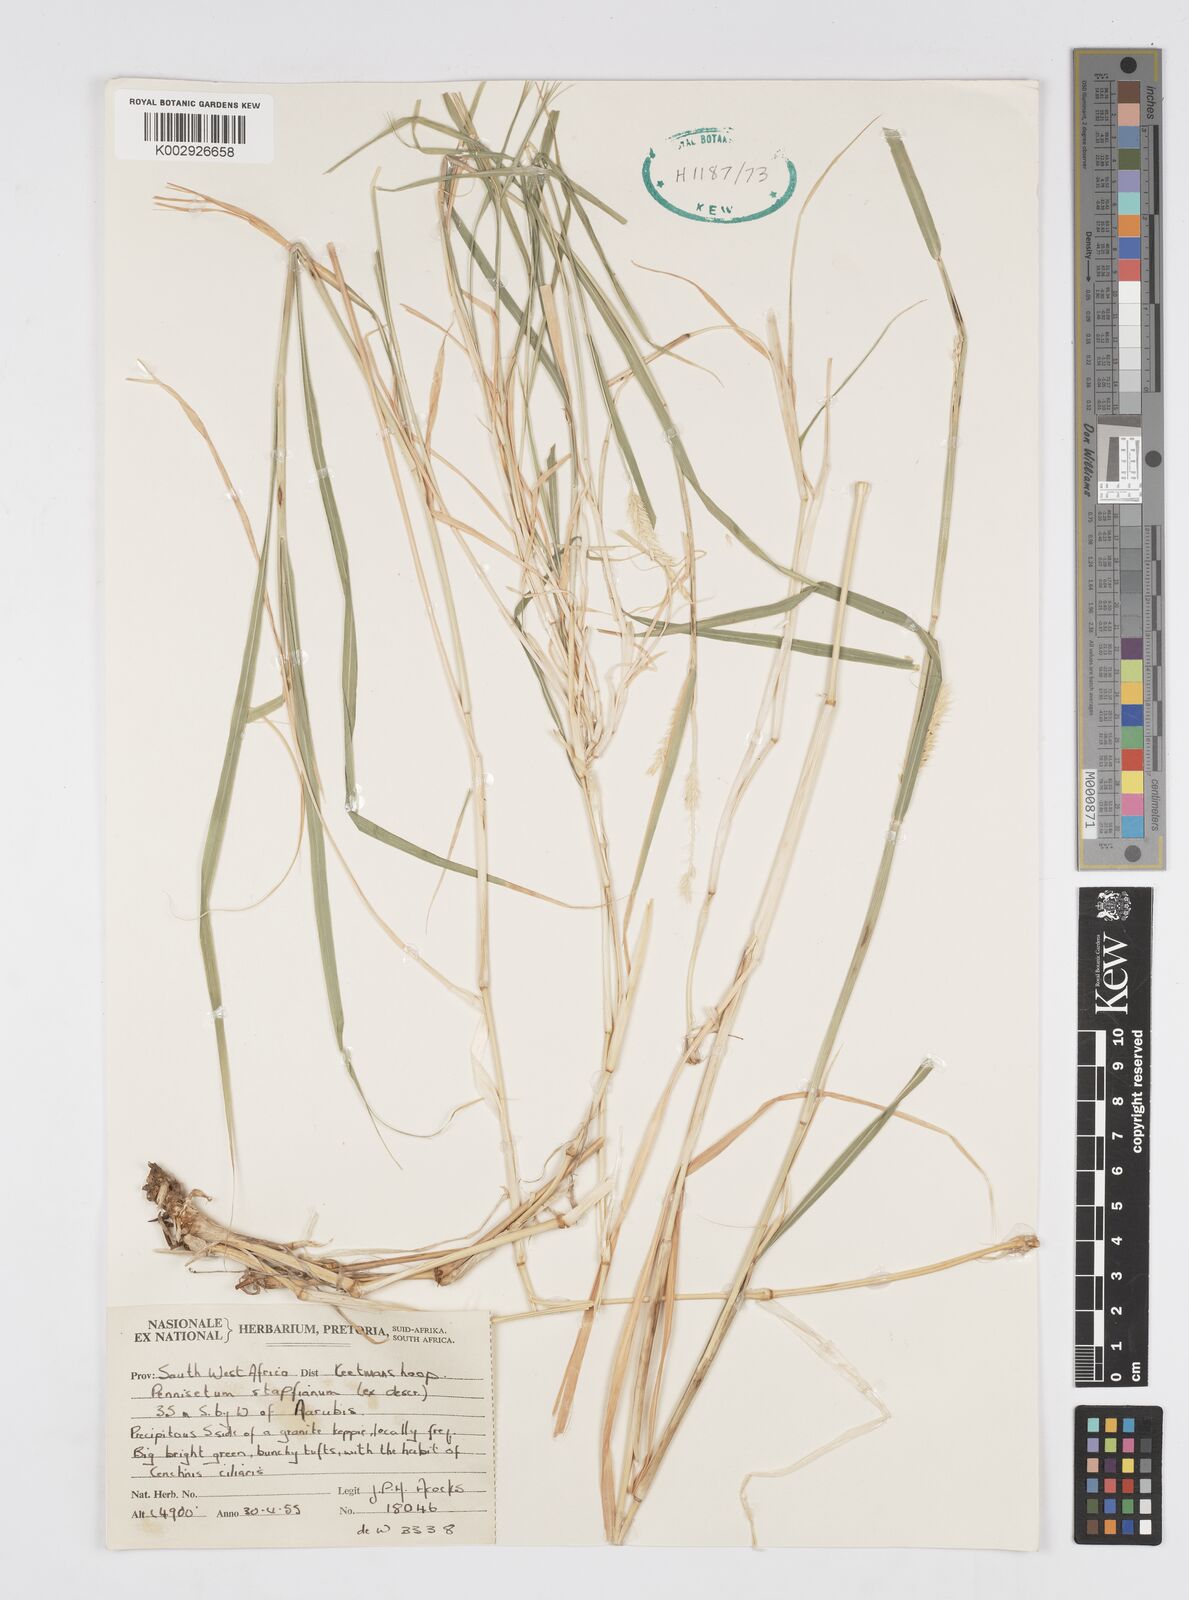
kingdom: Plantae
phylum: Tracheophyta
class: Liliopsida
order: Poales
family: Poaceae
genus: Cenchrus
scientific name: Cenchrus mezianus
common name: Bamboo grass
